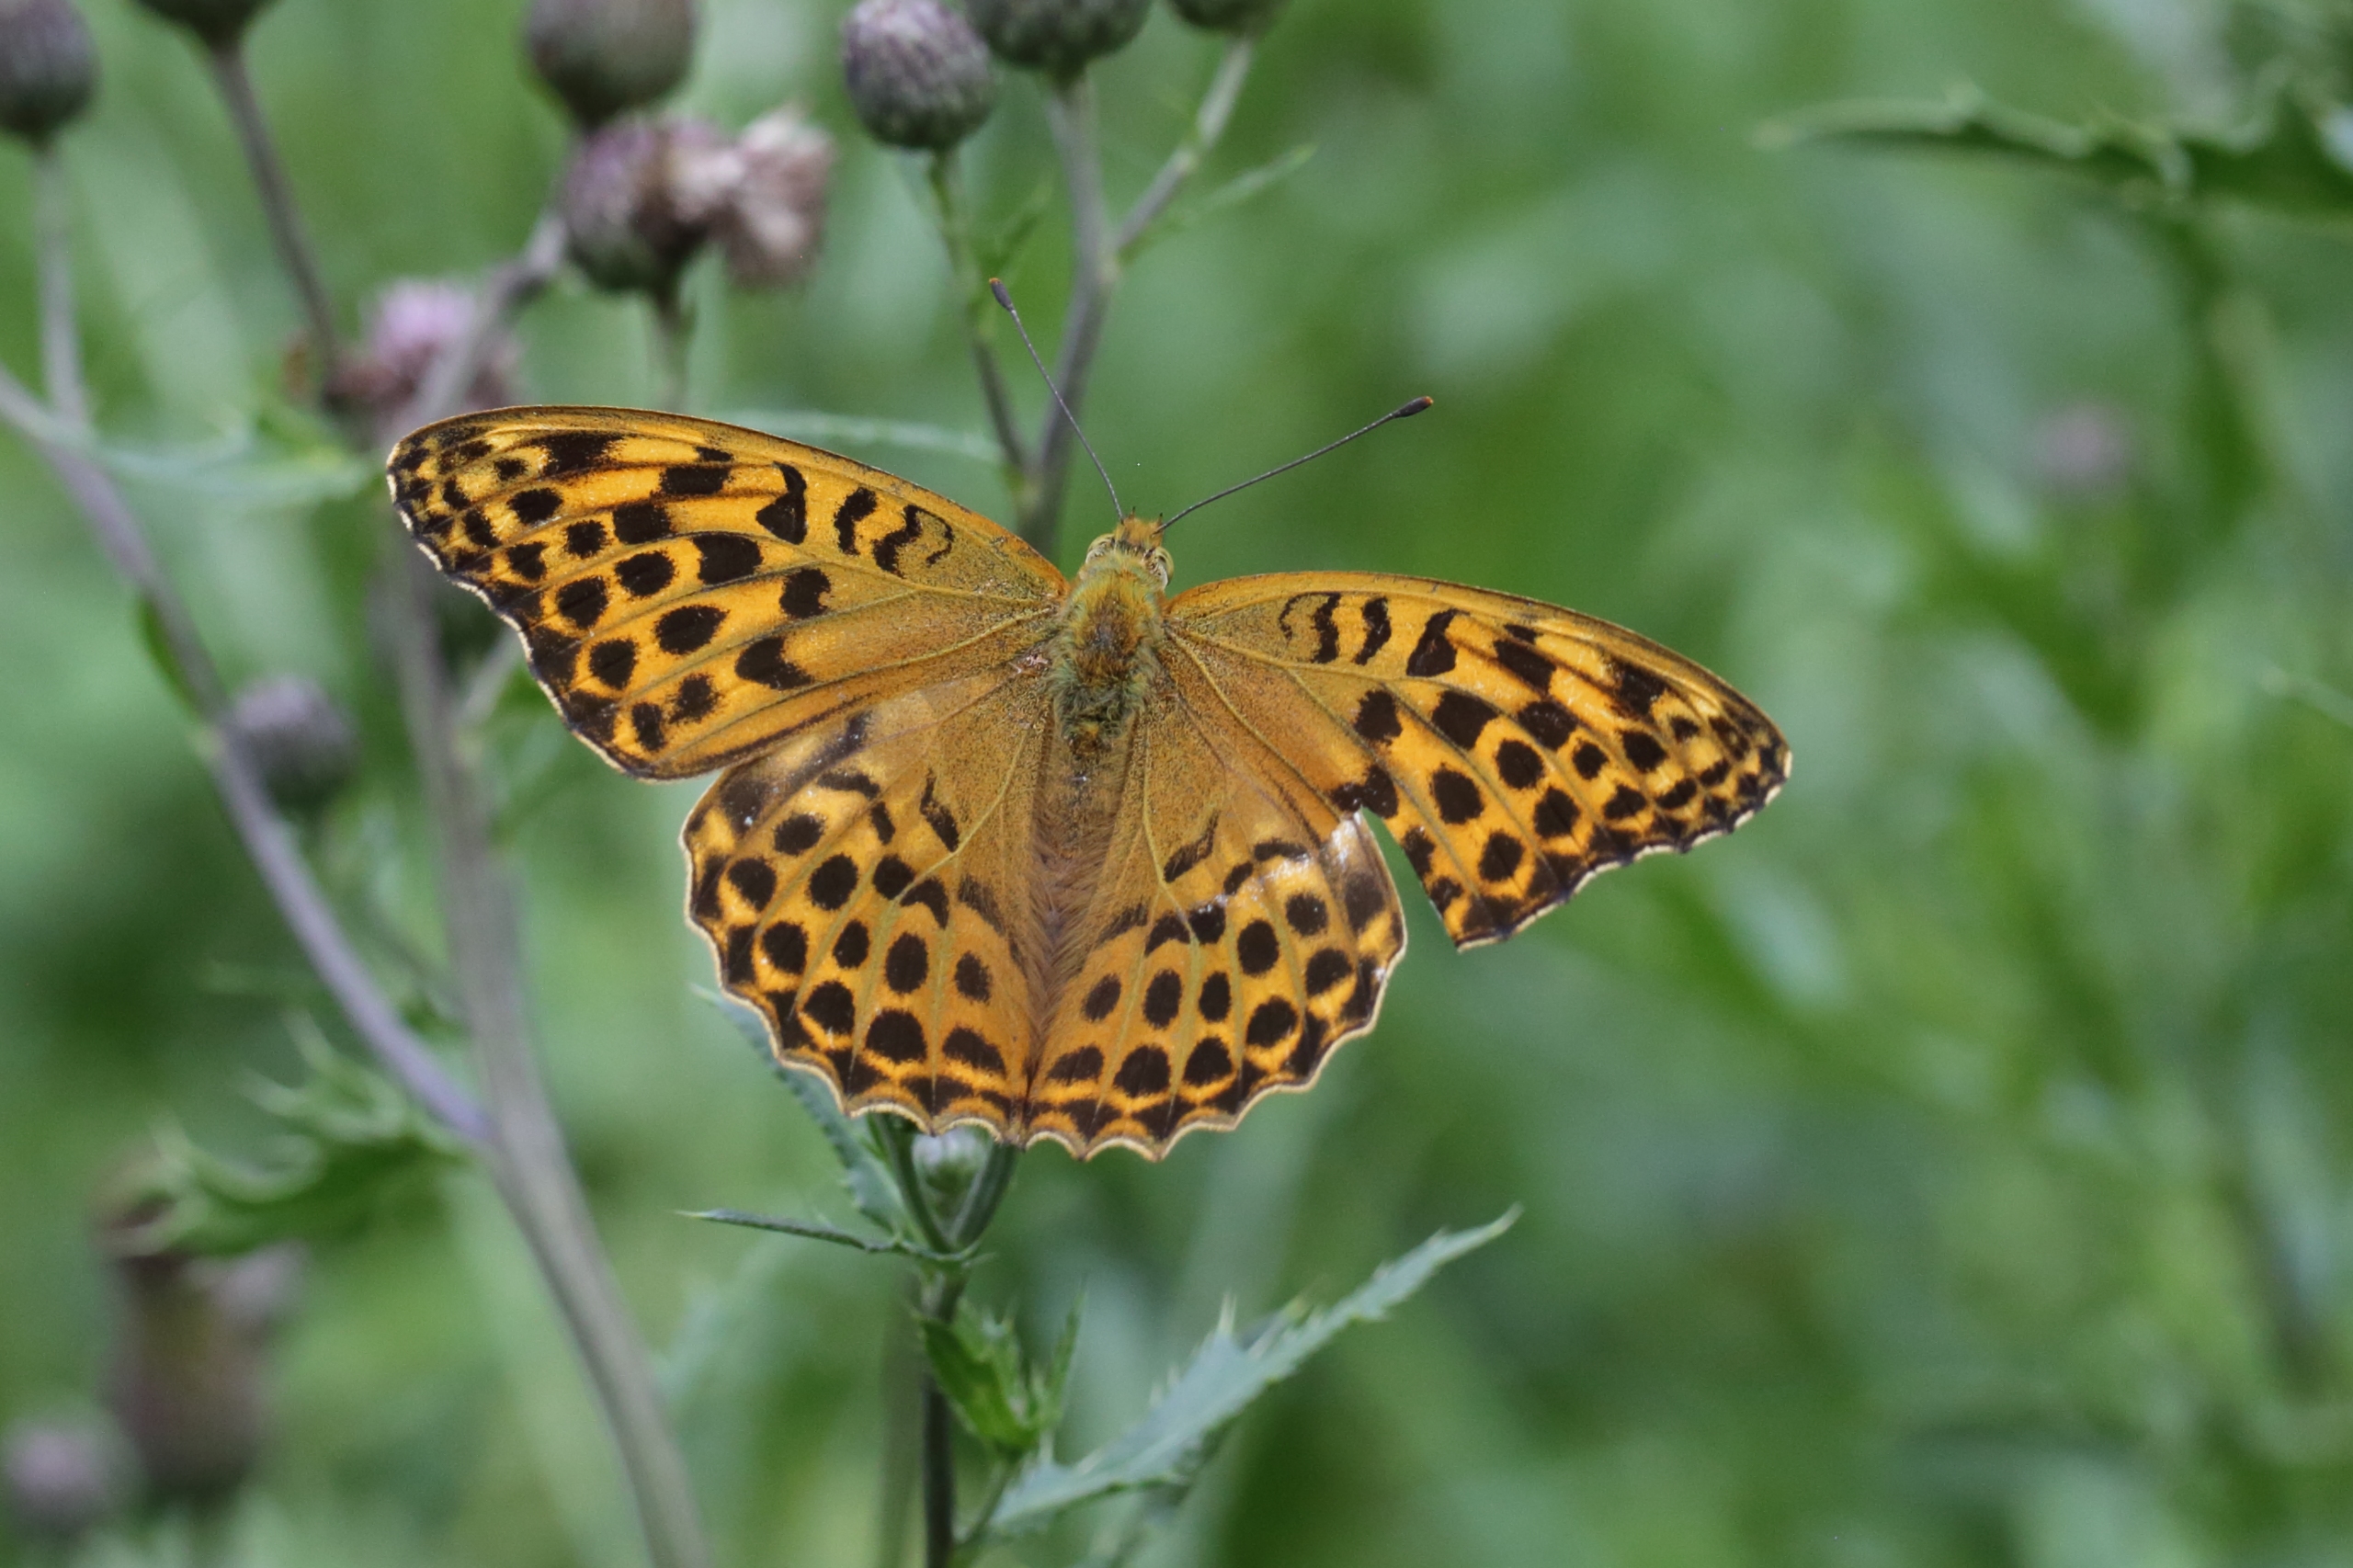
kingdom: Animalia
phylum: Arthropoda
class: Insecta
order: Lepidoptera
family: Nymphalidae
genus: Argynnis
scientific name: Argynnis paphia
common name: Kejserkåbe
